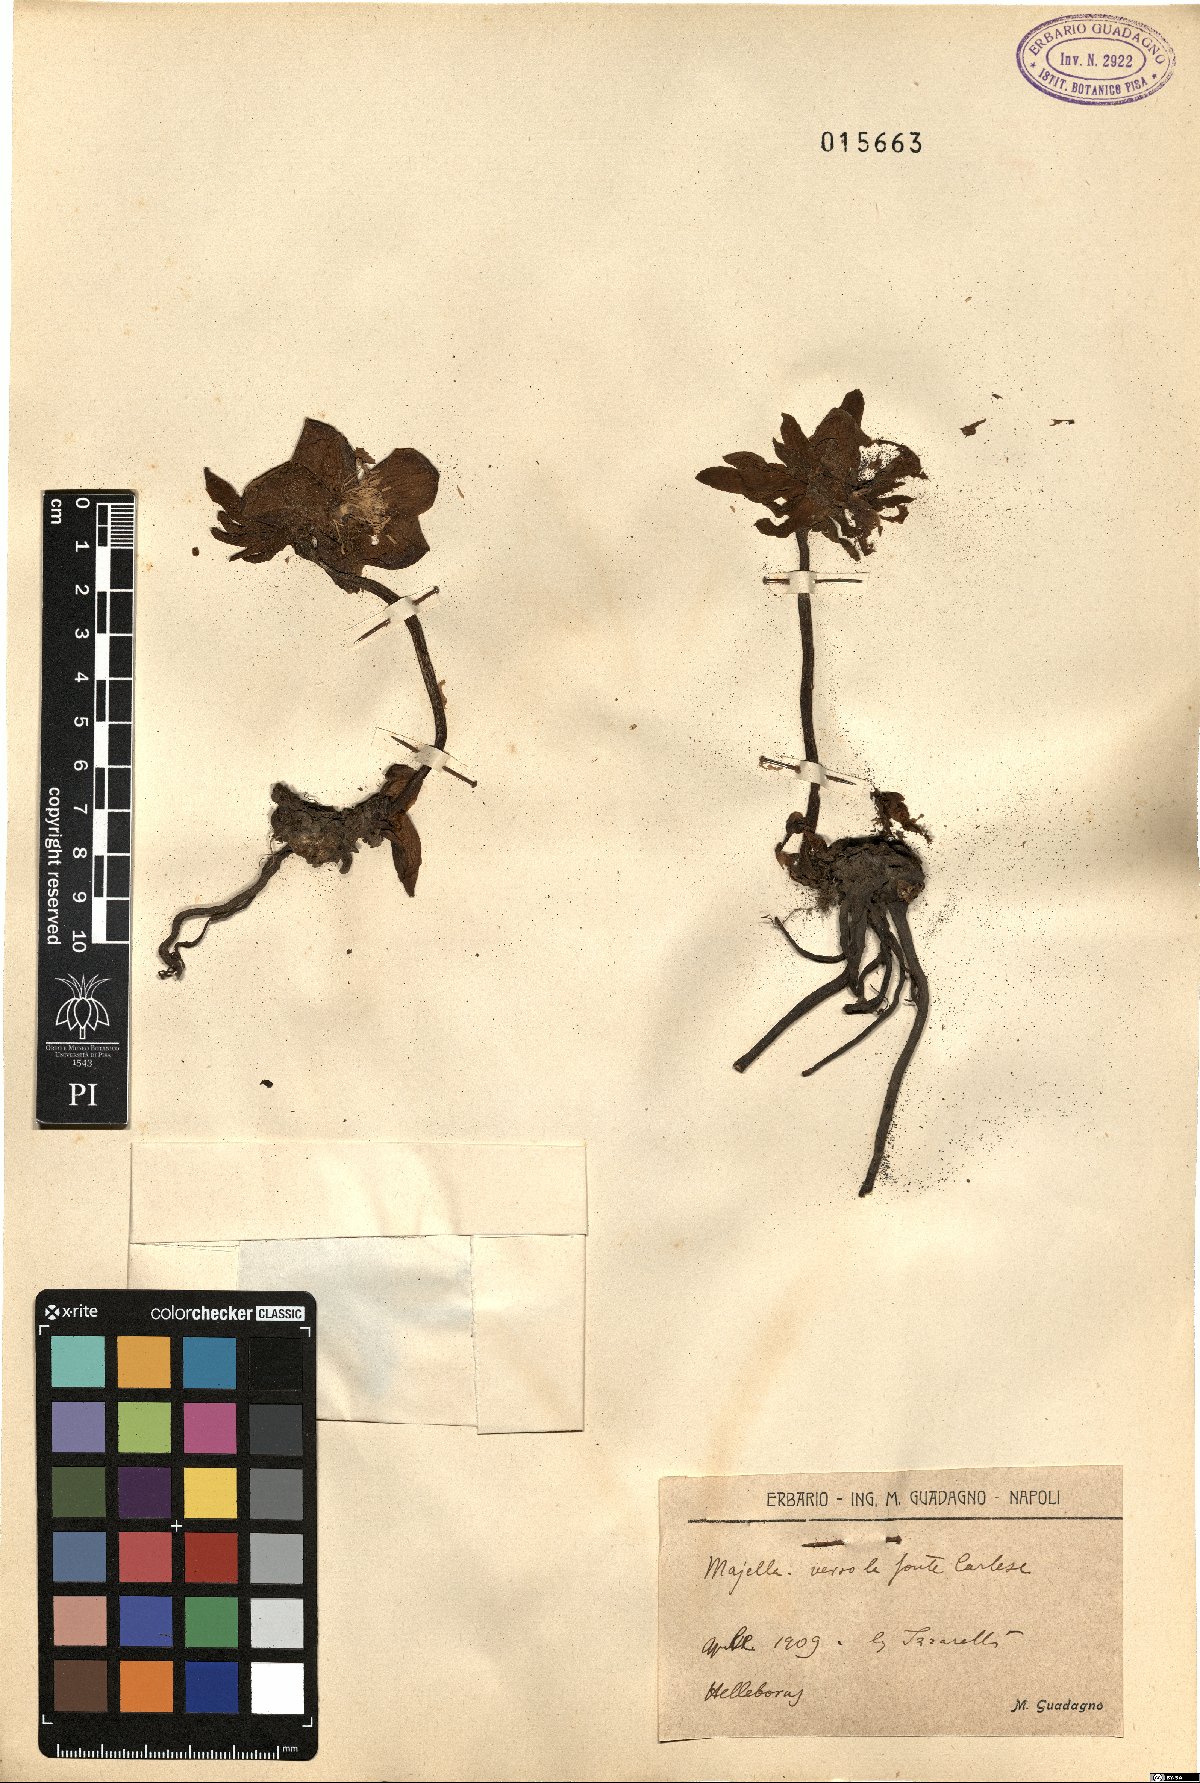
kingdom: Plantae
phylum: Tracheophyta
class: Magnoliopsida
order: Ranunculales
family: Ranunculaceae
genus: Helleborus
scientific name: Helleborus
